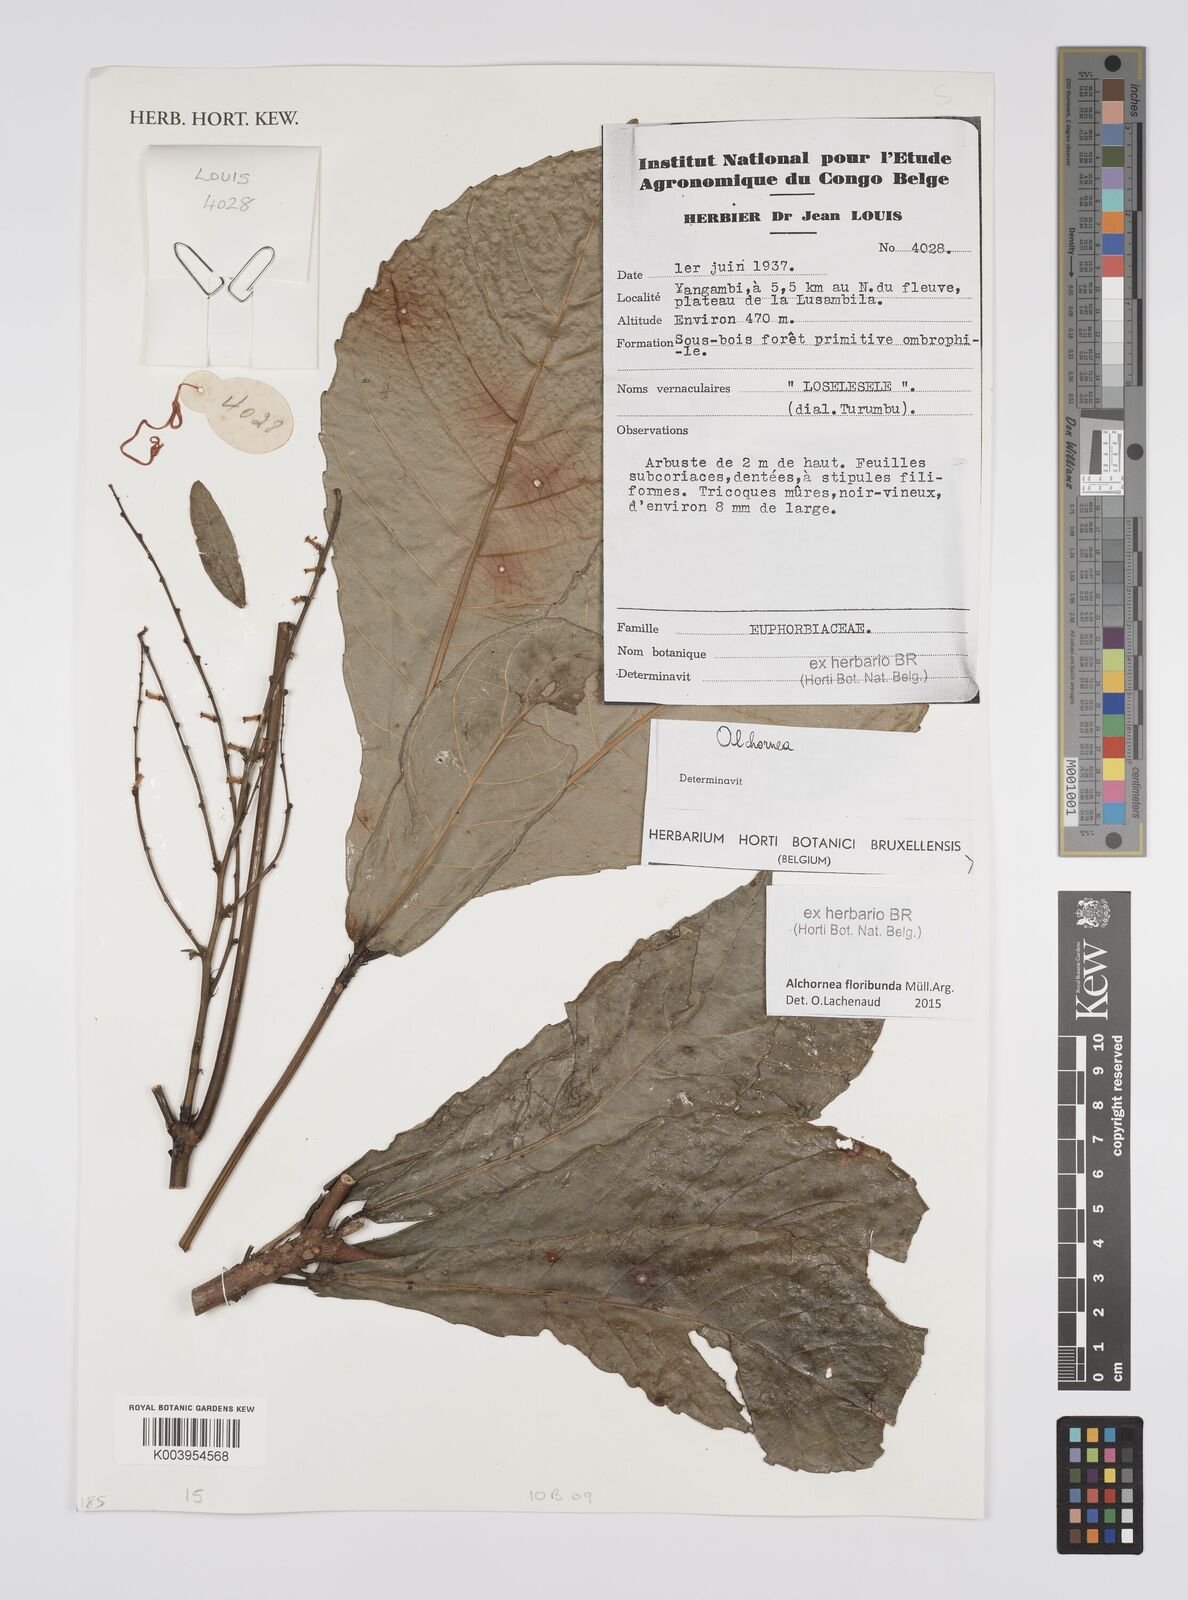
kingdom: Plantae
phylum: Tracheophyta
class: Magnoliopsida
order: Malpighiales
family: Euphorbiaceae
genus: Alchornea
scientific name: Alchornea floribunda
